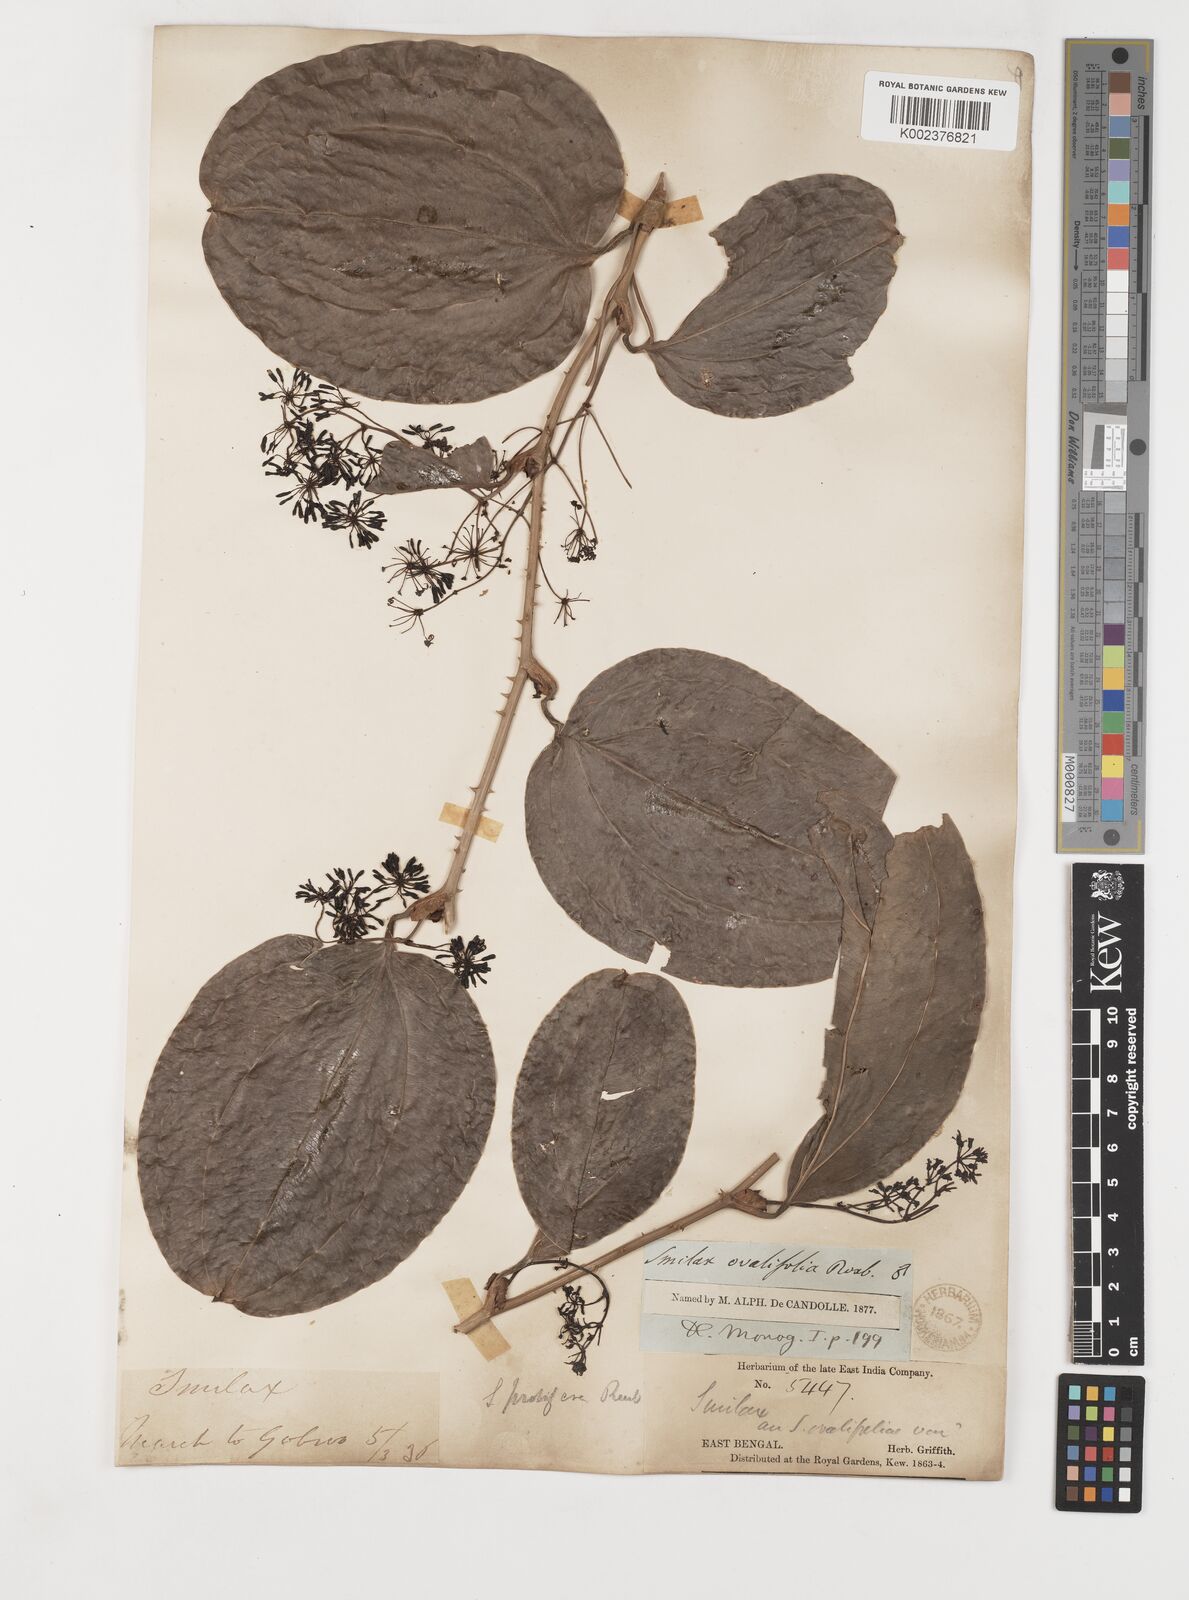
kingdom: Plantae
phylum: Tracheophyta
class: Liliopsida
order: Liliales
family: Smilacaceae
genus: Smilax
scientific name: Smilax prolifera
